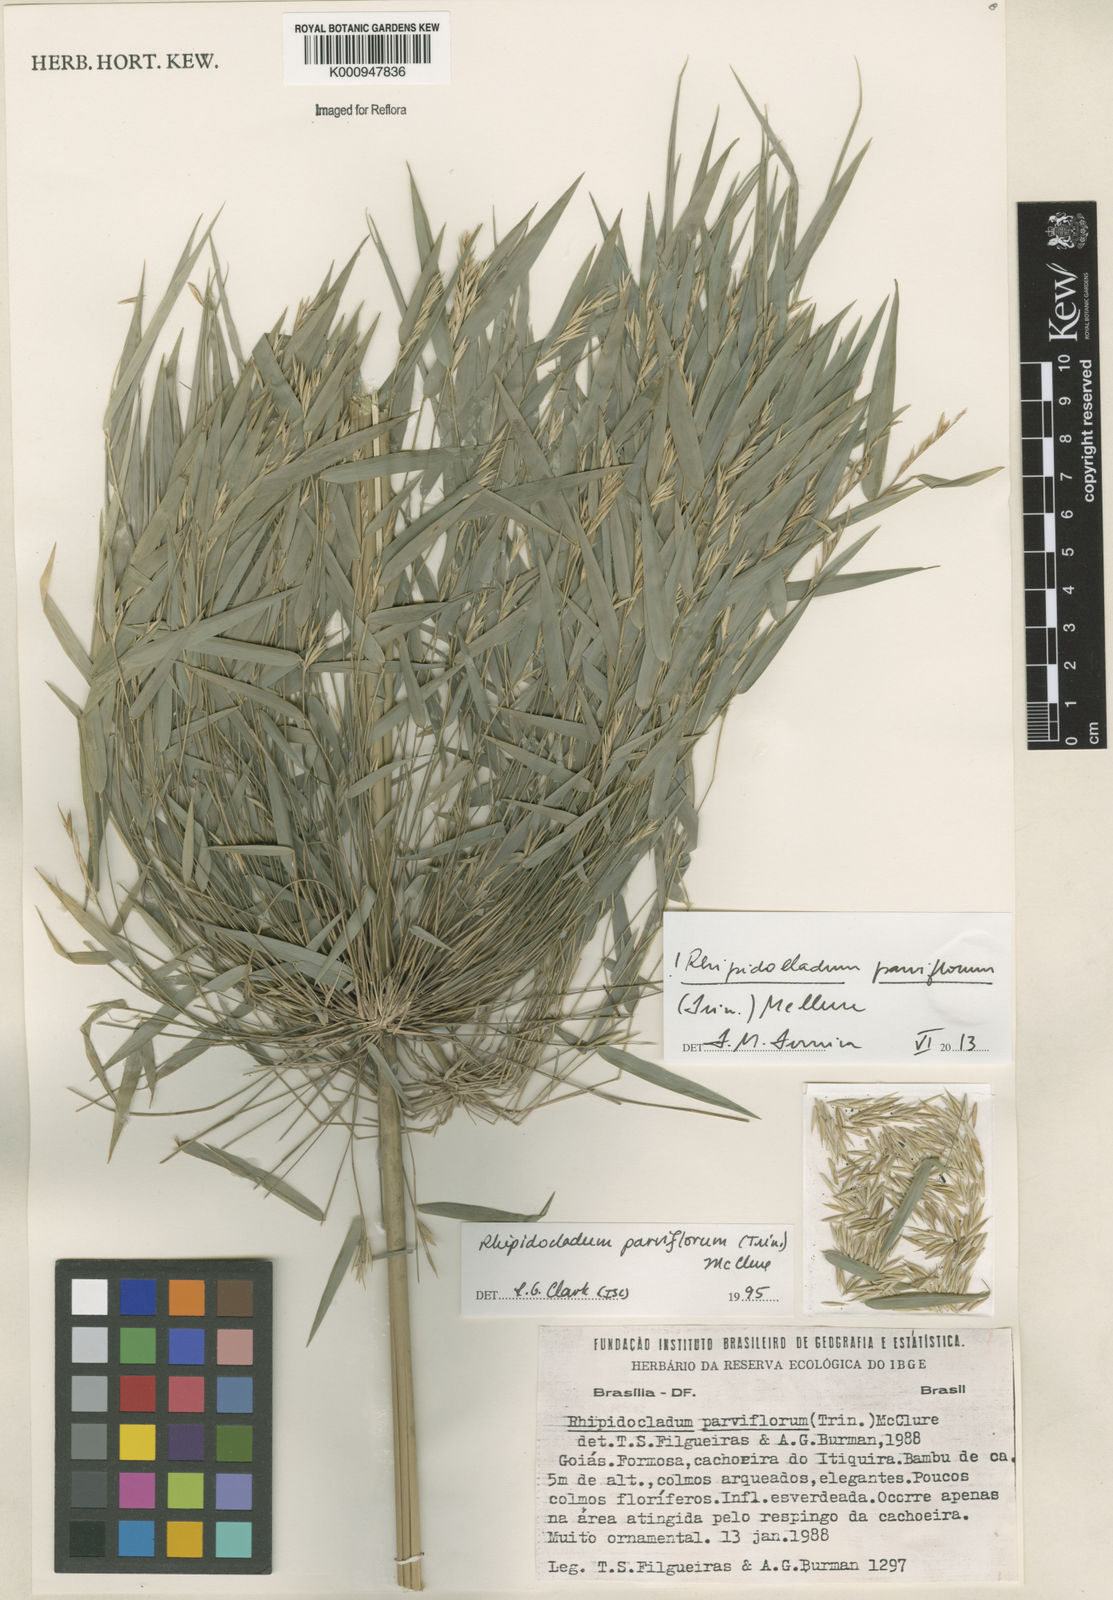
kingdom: Plantae
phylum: Tracheophyta
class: Liliopsida
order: Poales
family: Poaceae
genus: Rhipidocladum
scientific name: Rhipidocladum parviflorum
